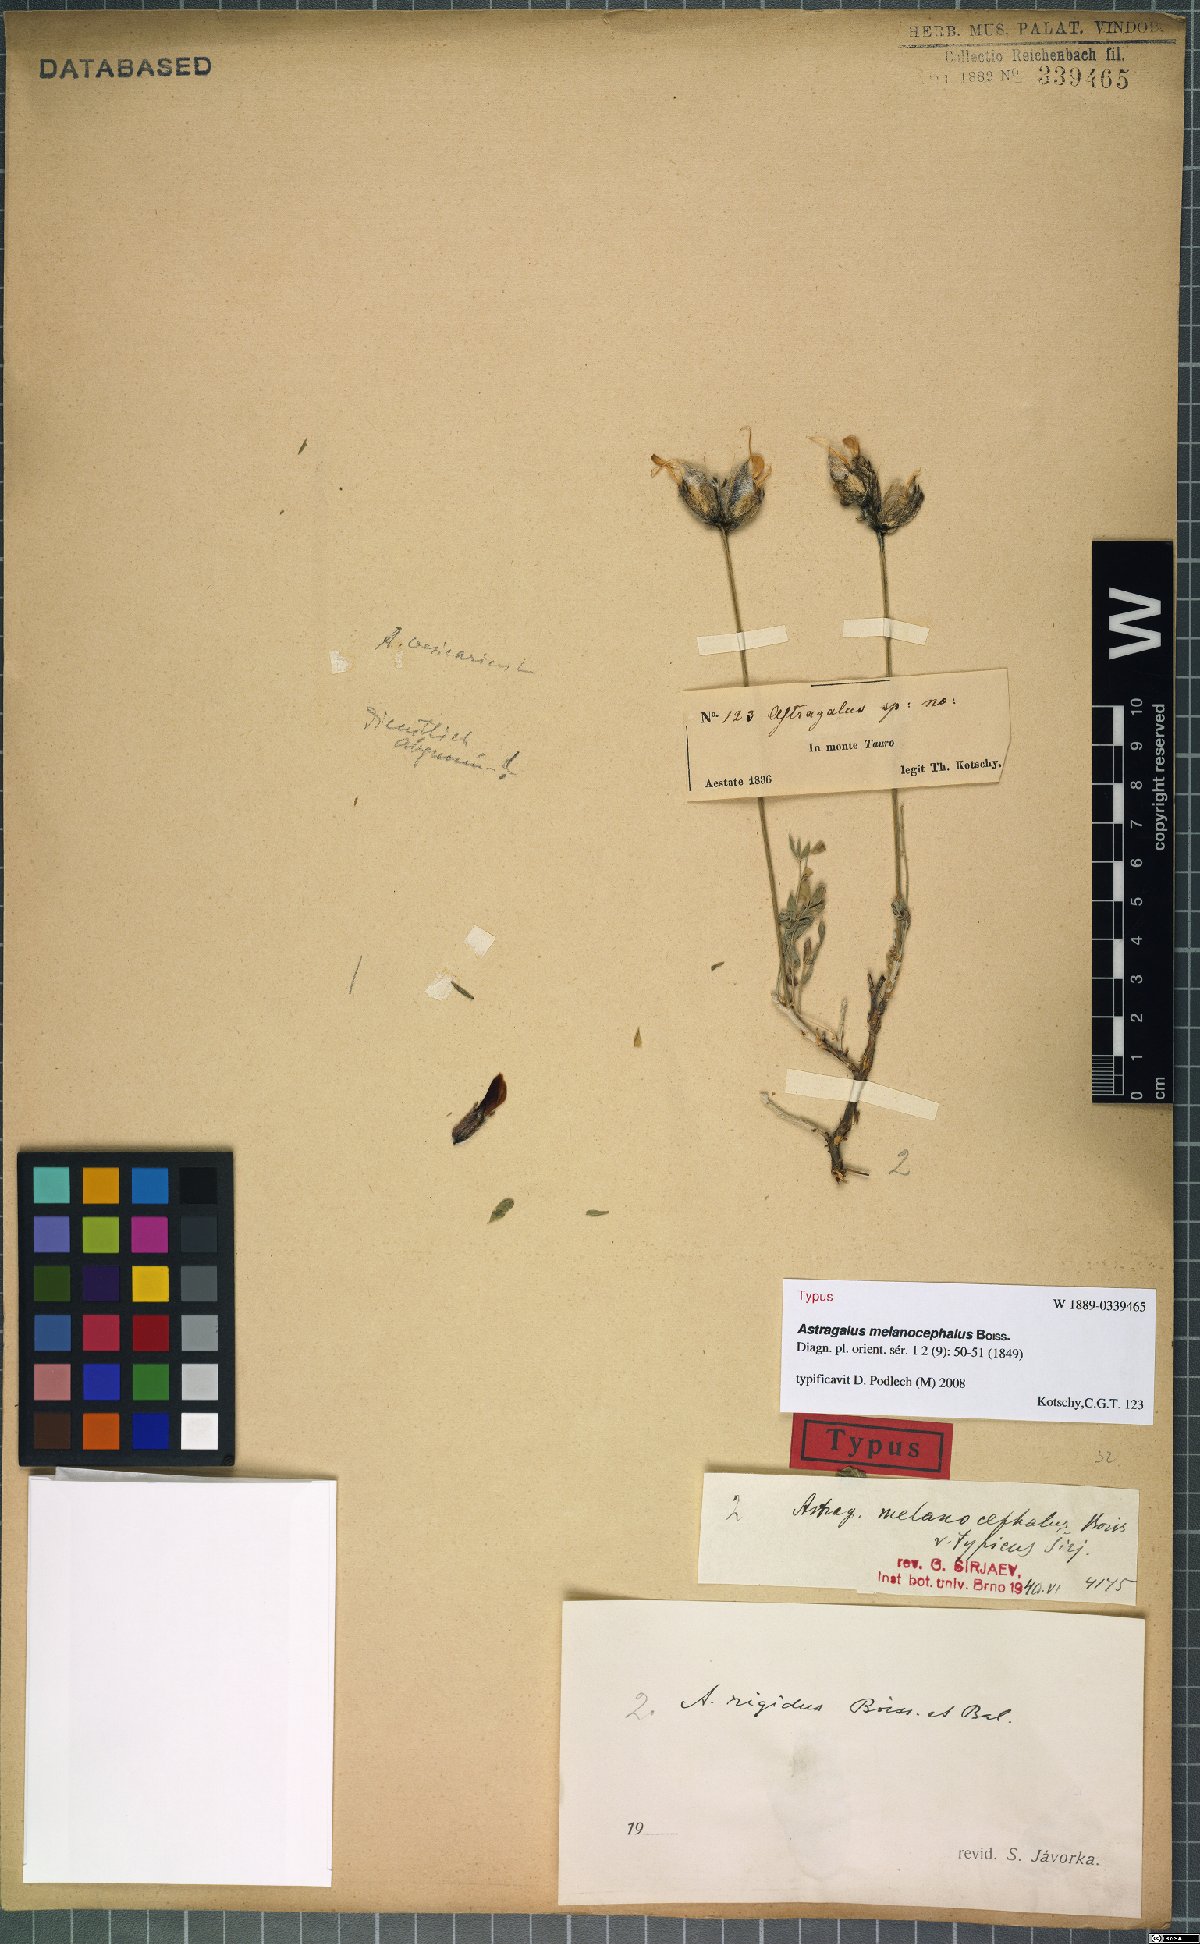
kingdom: Plantae
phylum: Tracheophyta
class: Magnoliopsida
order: Fabales
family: Fabaceae
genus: Astragalus
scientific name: Astragalus melanocephalus
